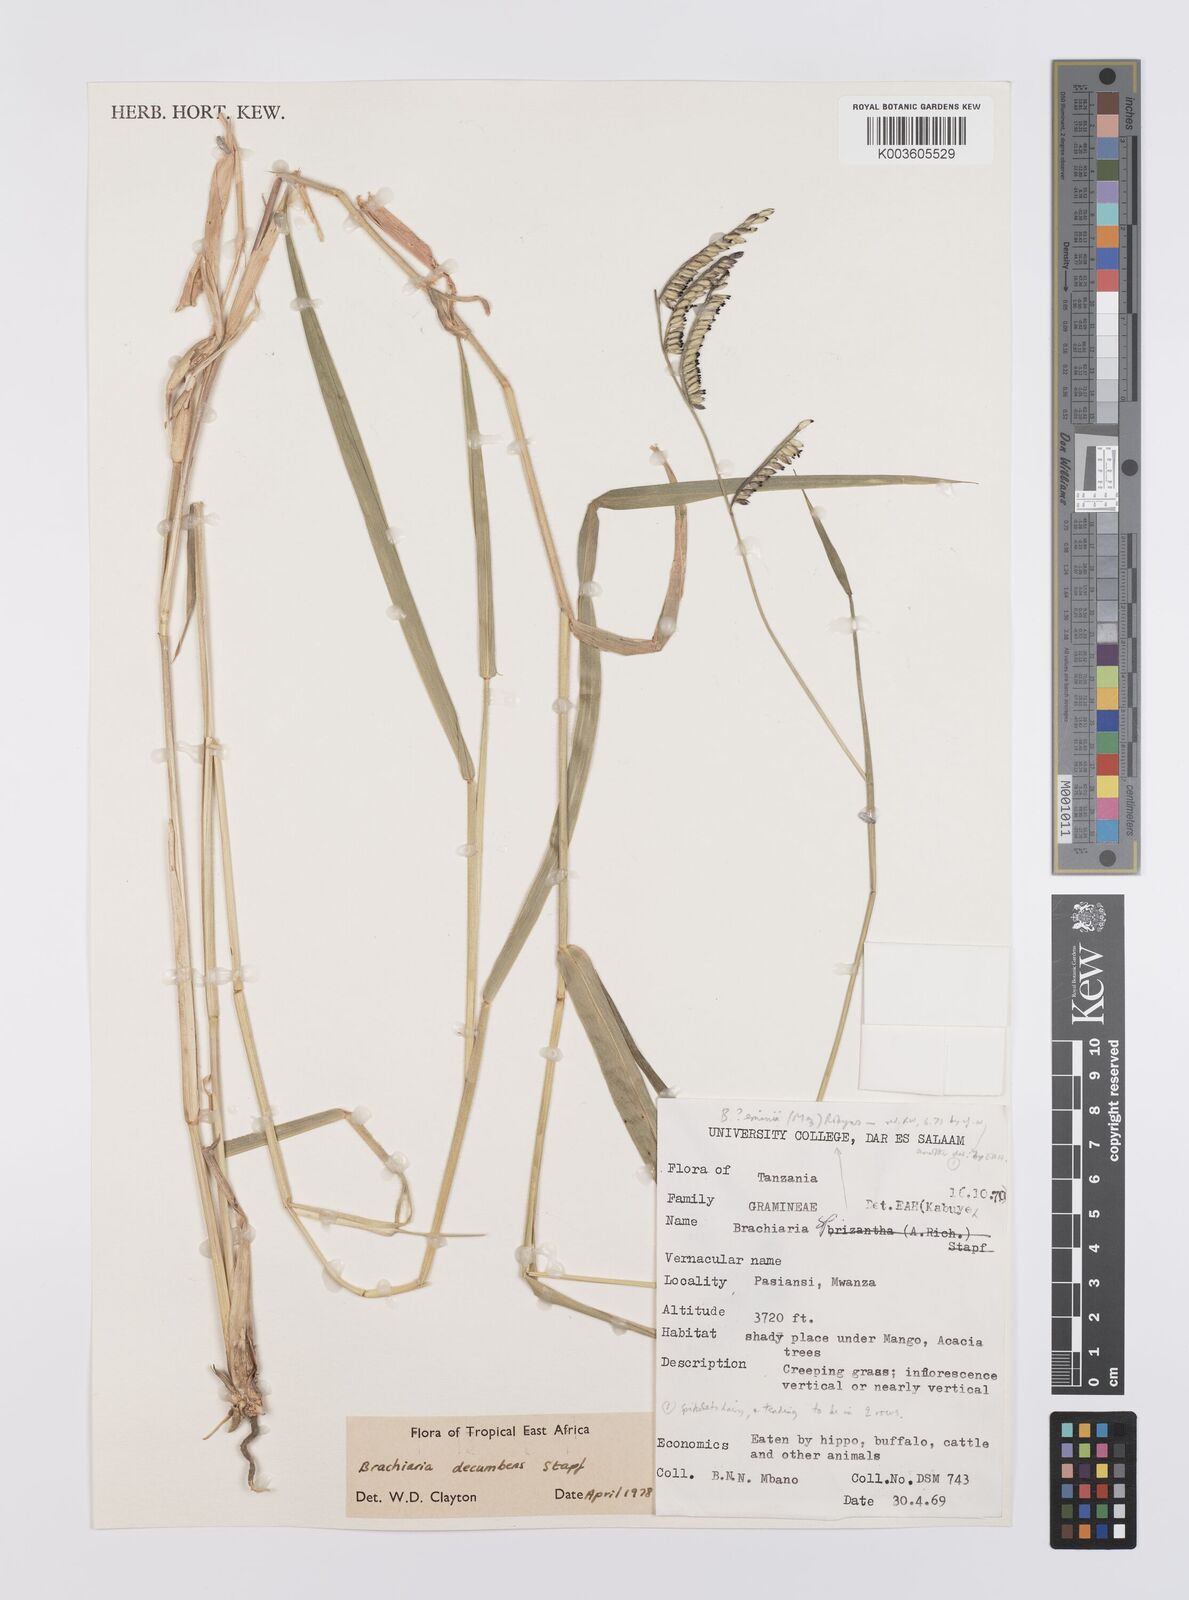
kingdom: Plantae
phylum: Tracheophyta
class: Liliopsida
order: Poales
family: Poaceae
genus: Urochloa
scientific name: Urochloa eminii
